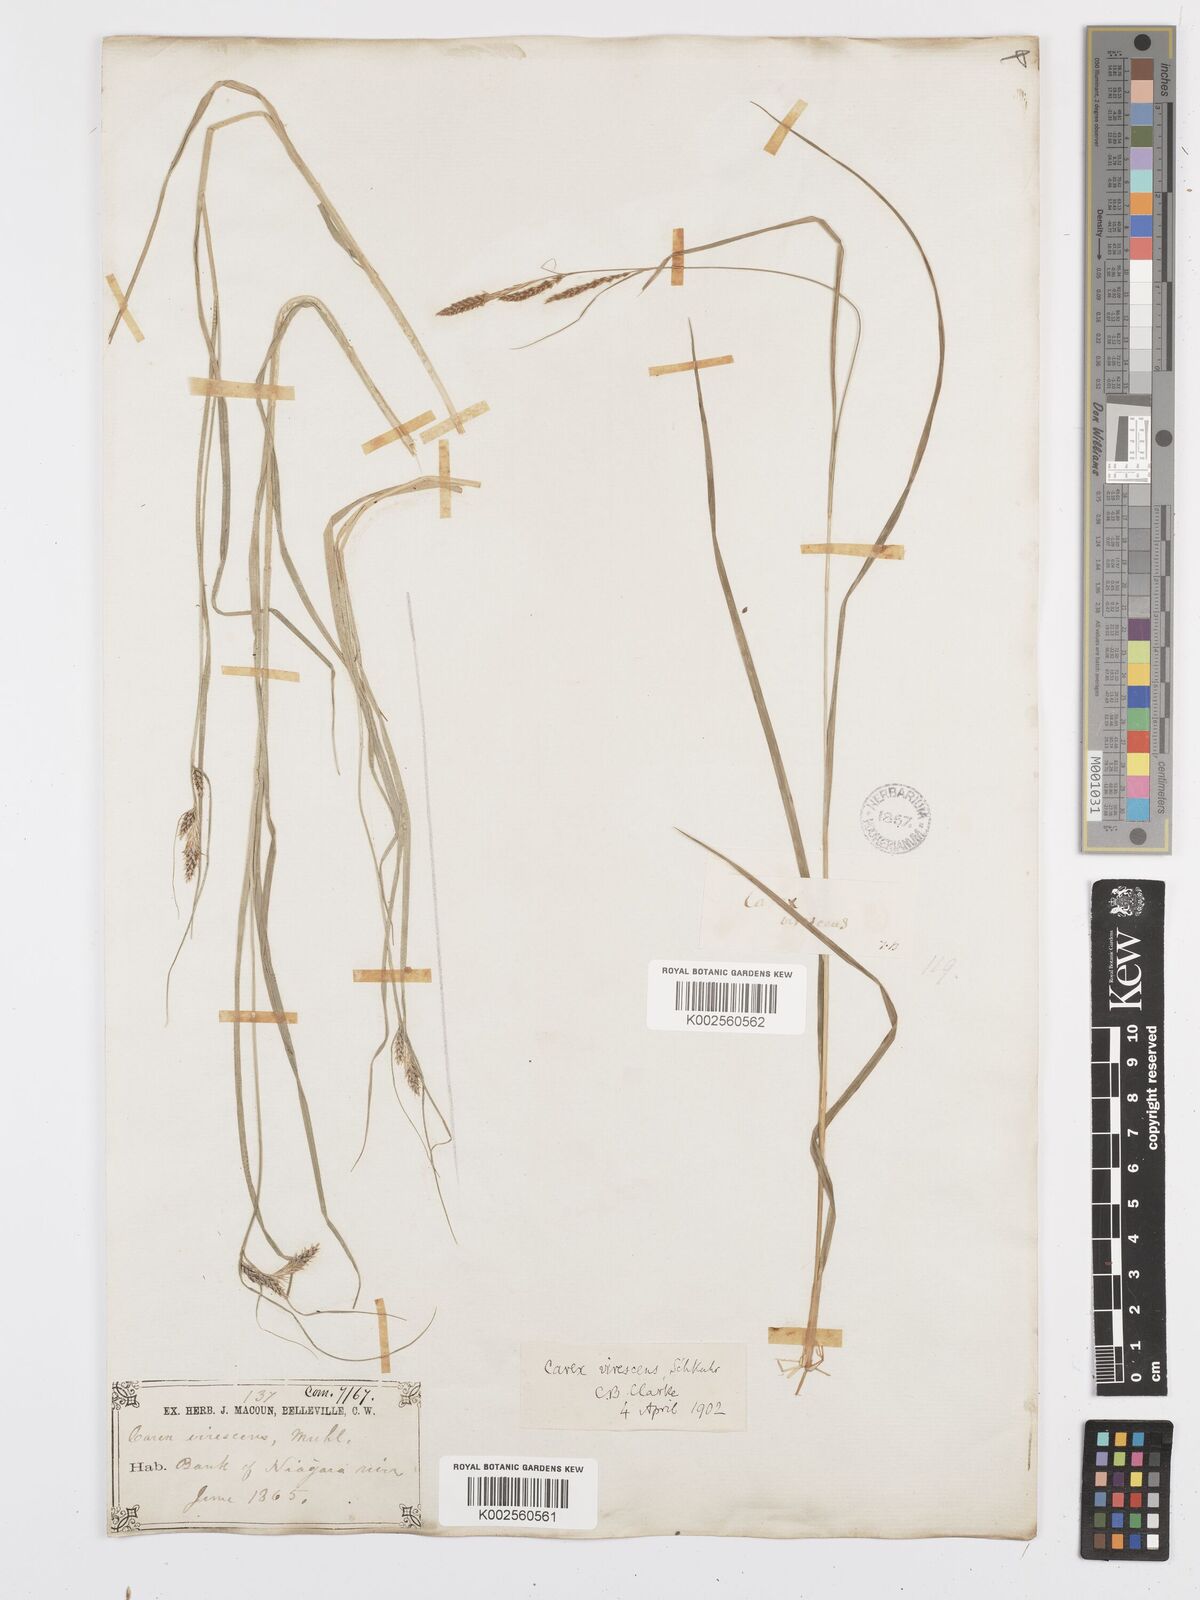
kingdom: Plantae
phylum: Tracheophyta
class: Liliopsida
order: Poales
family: Cyperaceae
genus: Carex
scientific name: Carex virescens
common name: Ribbed sedge
